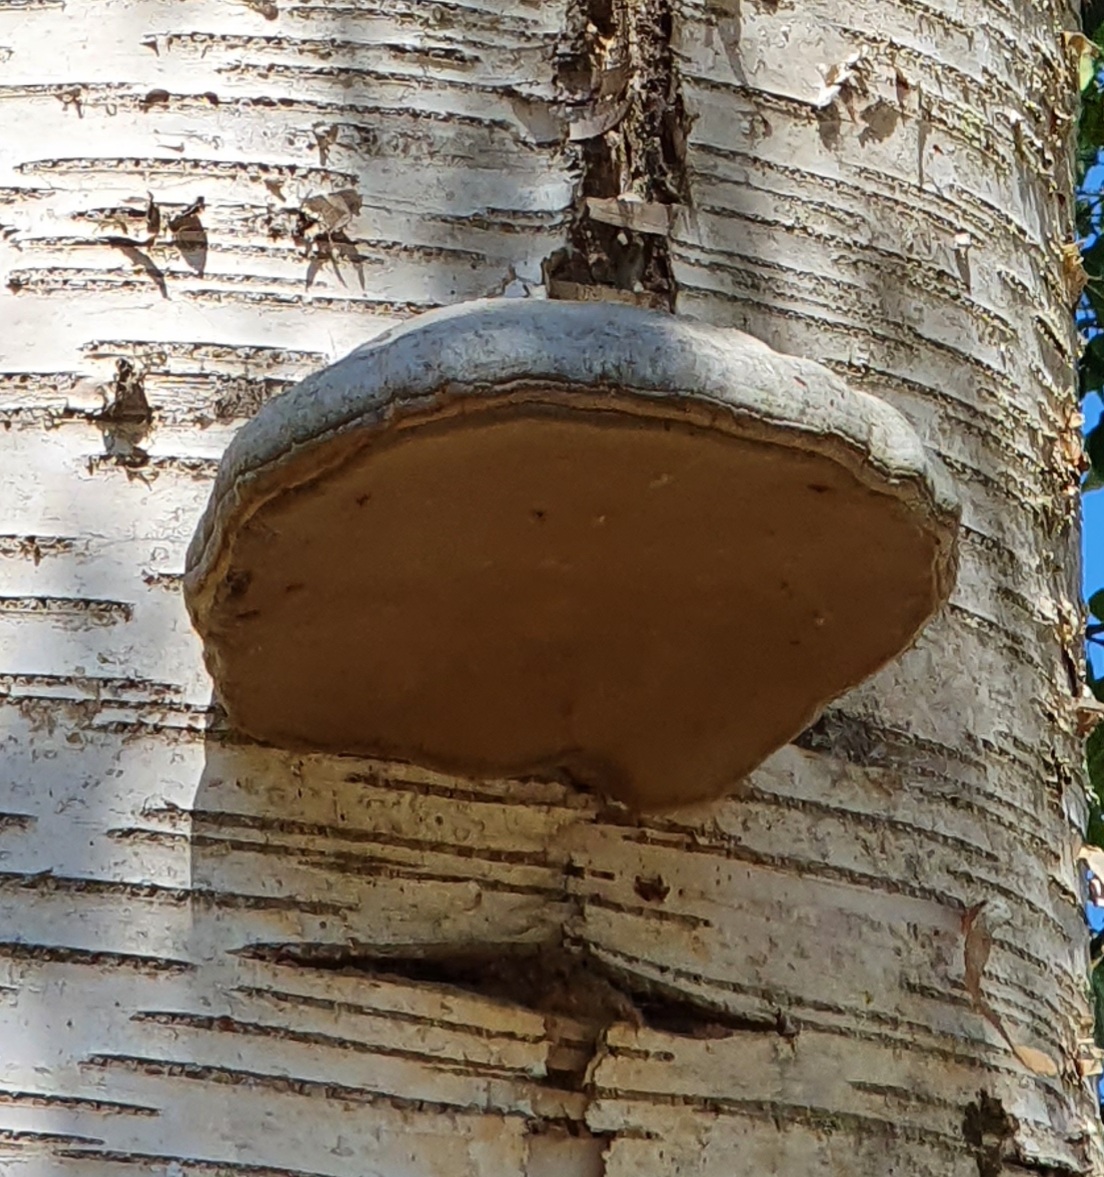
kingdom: Fungi
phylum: Basidiomycota
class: Agaricomycetes
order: Polyporales
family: Polyporaceae
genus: Fomes
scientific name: Fomes fomentarius
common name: tøndersvamp
